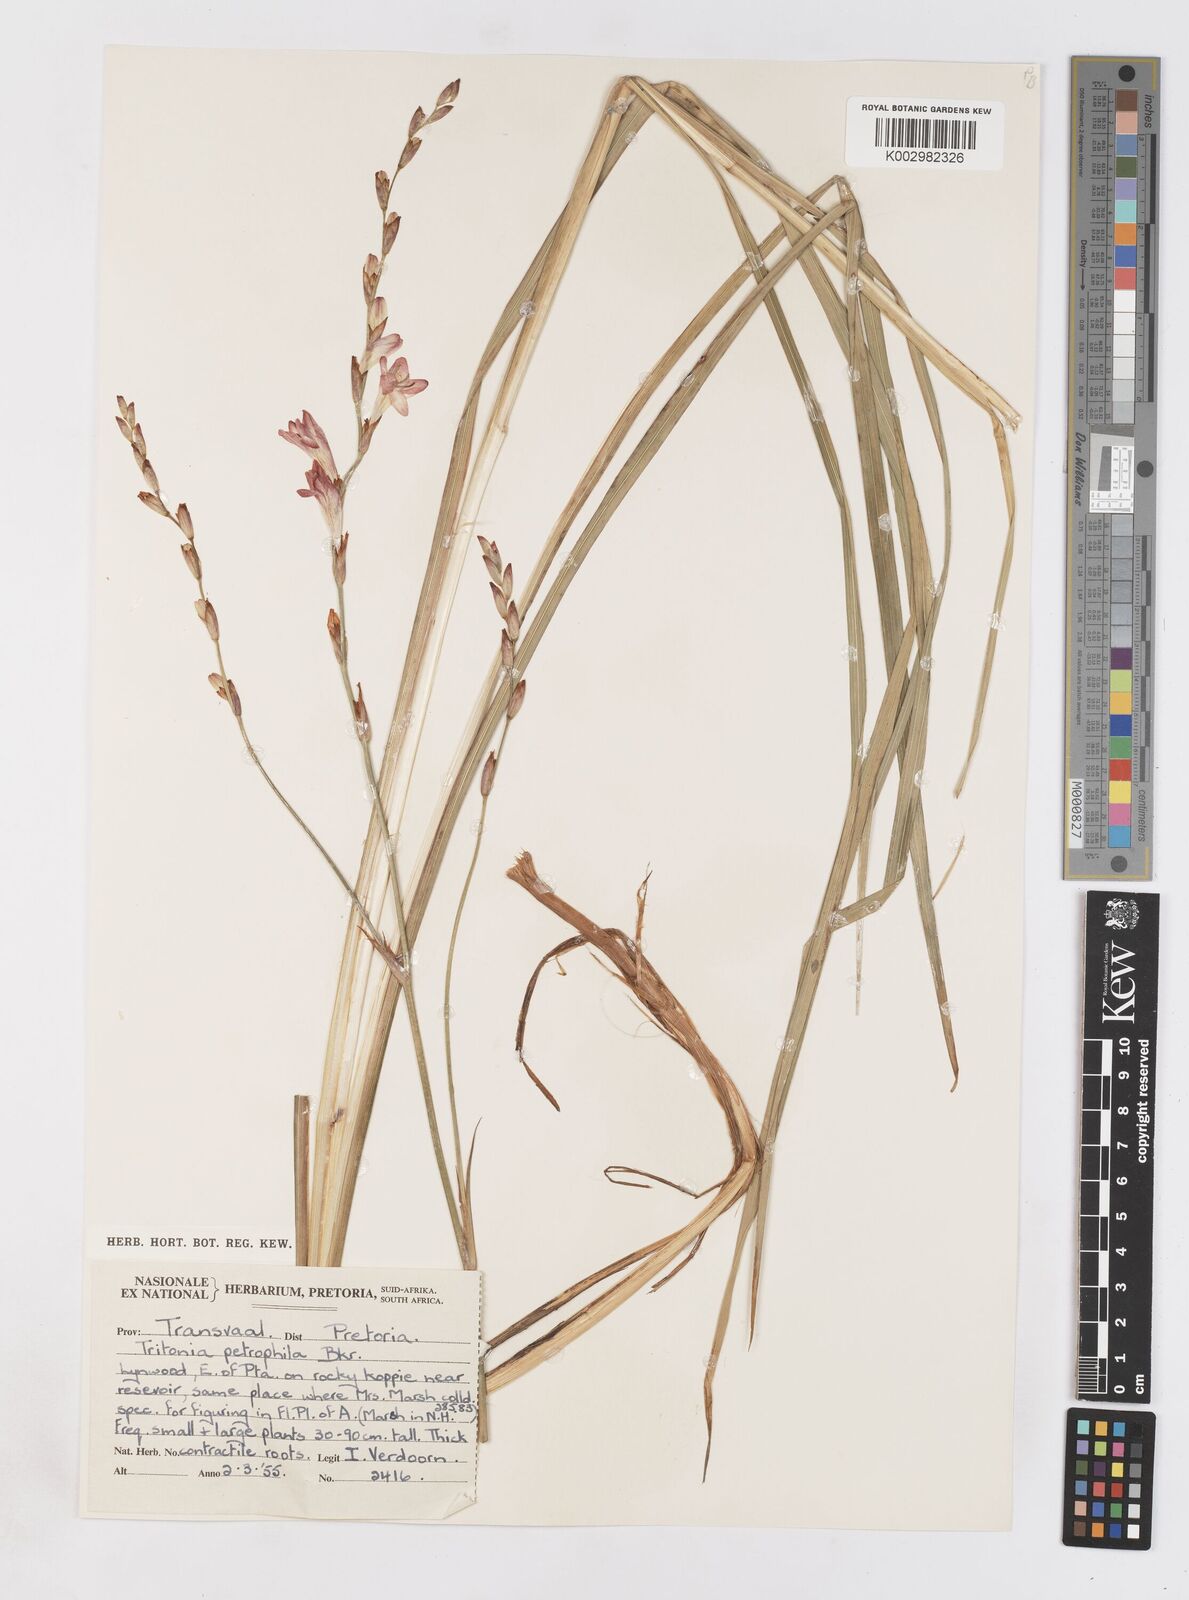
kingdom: Plantae
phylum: Tracheophyta
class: Liliopsida
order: Asparagales
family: Iridaceae
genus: Tritonia
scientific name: Tritonia nelsonii
